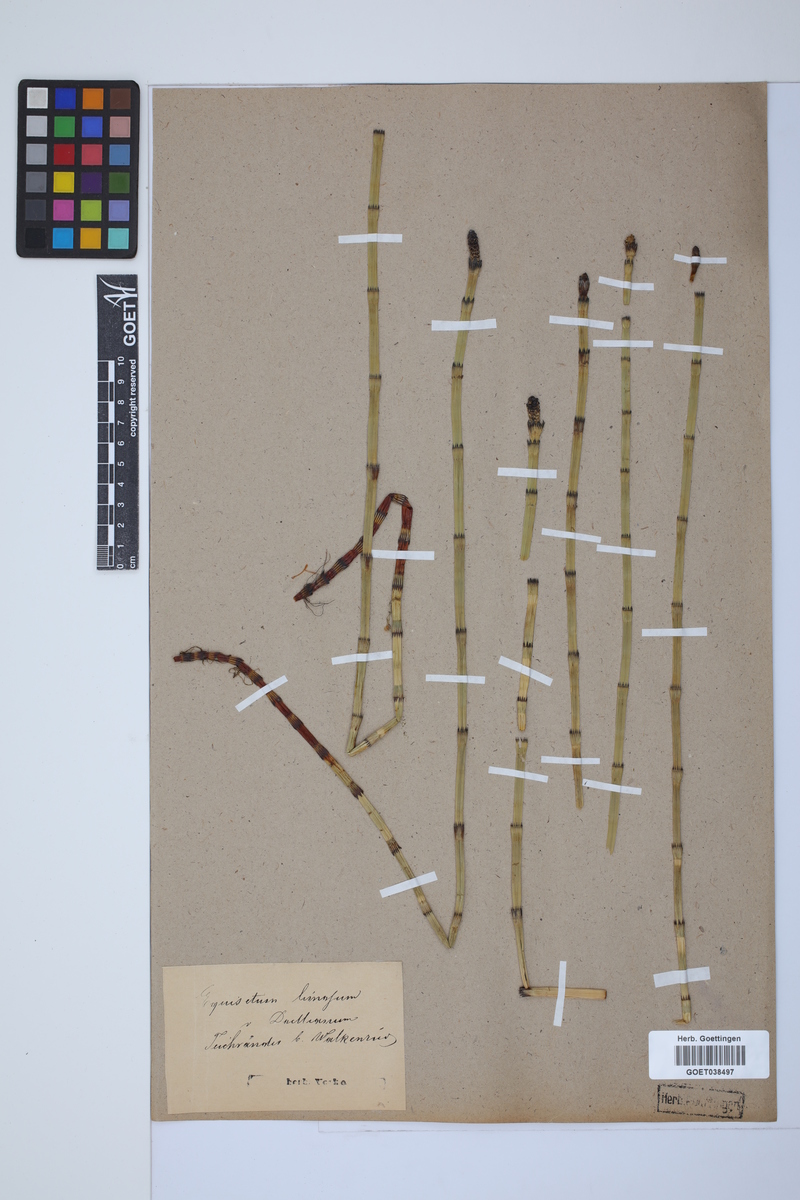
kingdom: Plantae
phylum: Tracheophyta
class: Polypodiopsida
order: Equisetales
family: Equisetaceae
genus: Equisetum
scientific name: Equisetum fluviatile
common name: Water horsetail
